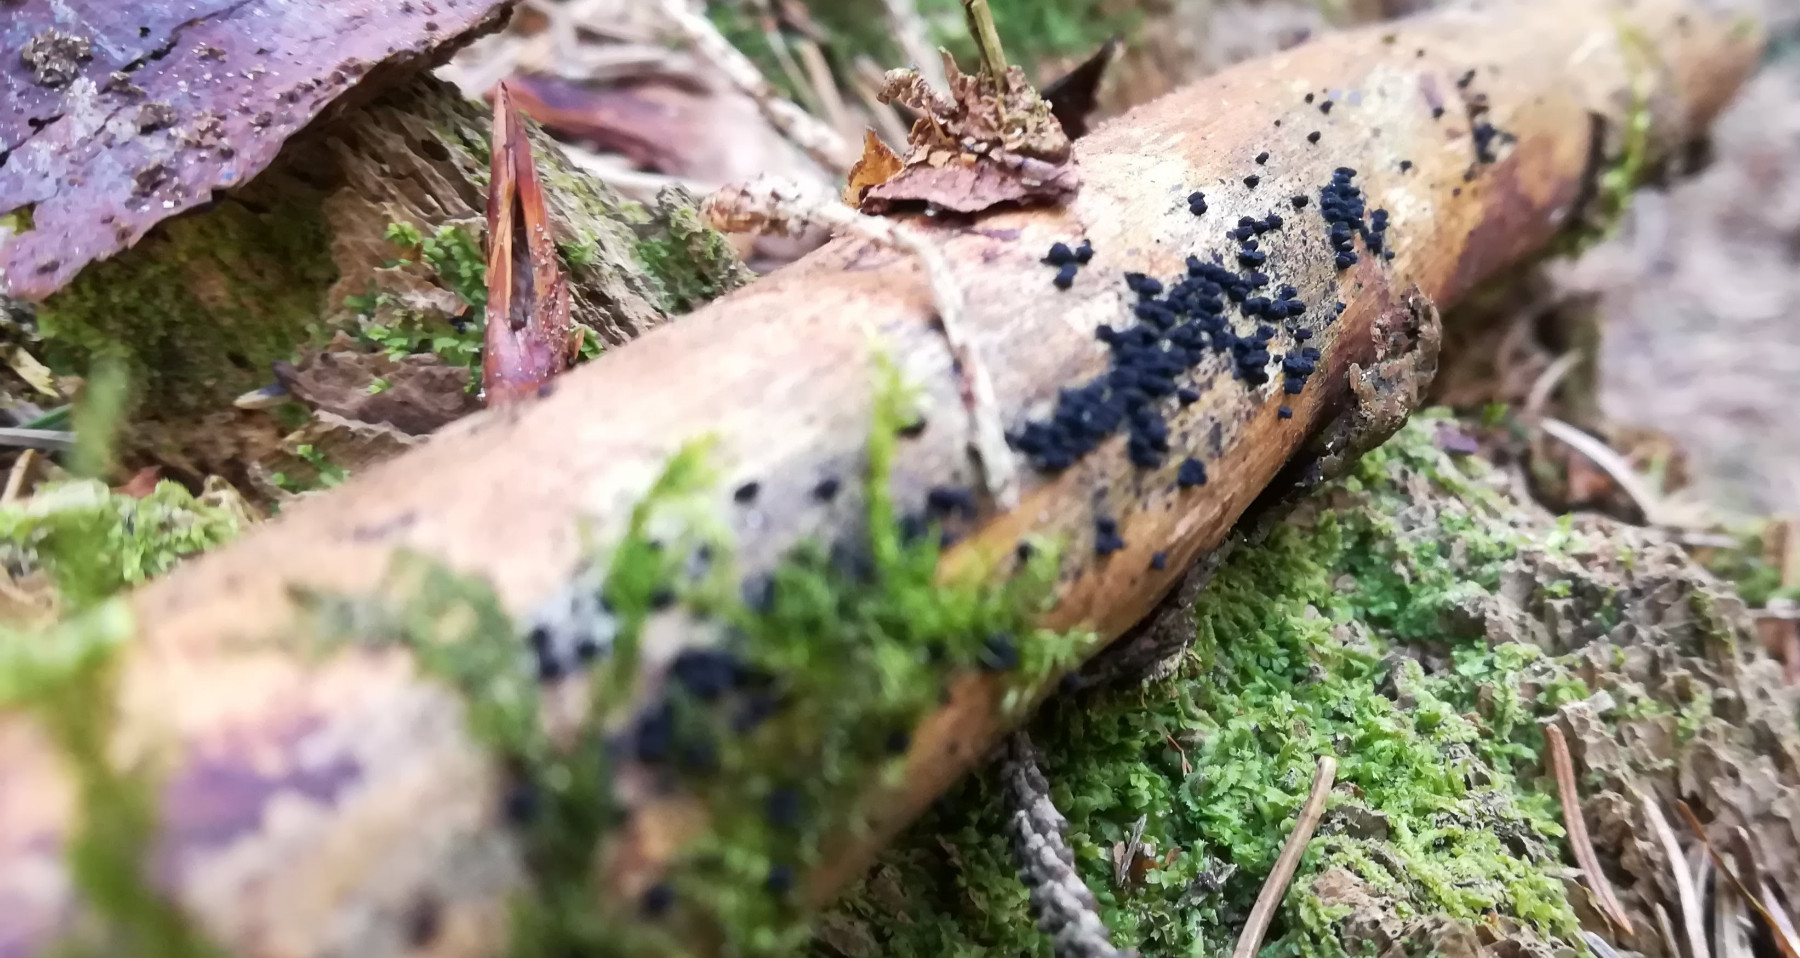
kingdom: Fungi
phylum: Ascomycota
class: Sordariomycetes
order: Coronophorales
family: Bertiaceae
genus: Bertia
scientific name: Bertia moriformis
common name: almindelig morbærkerne
